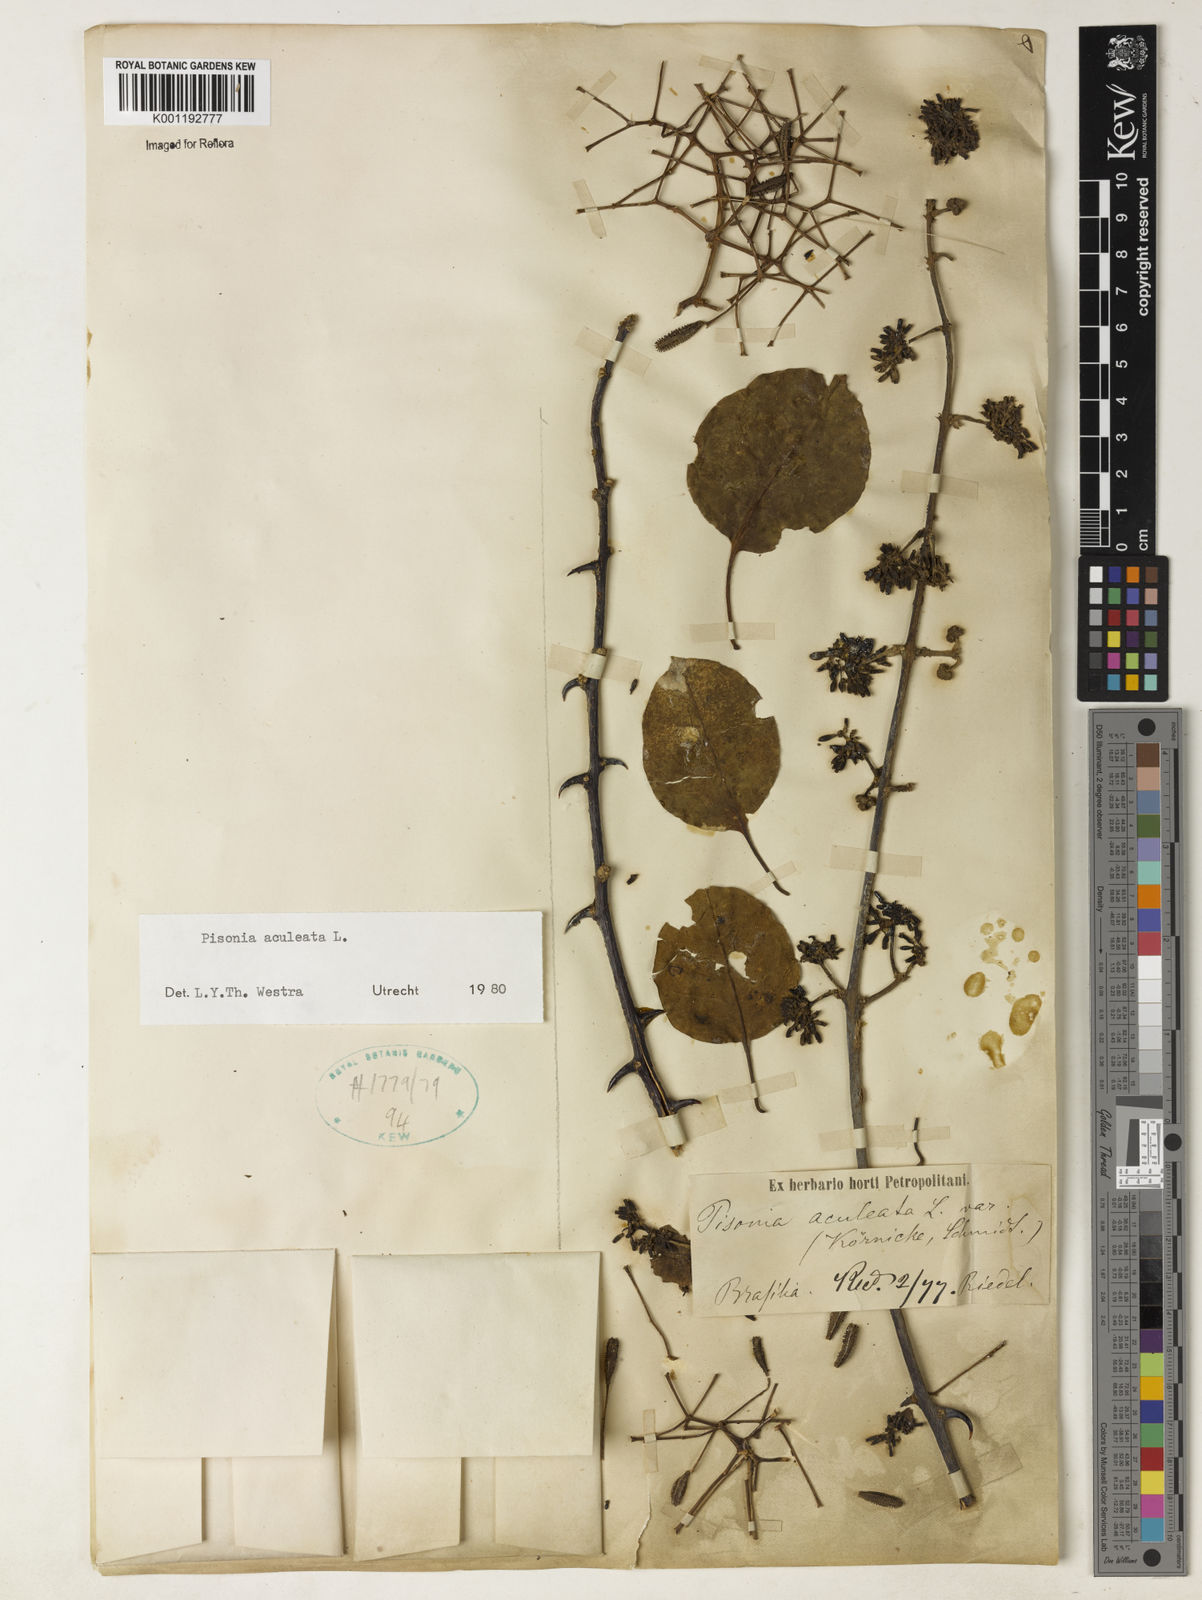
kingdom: Plantae
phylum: Tracheophyta
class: Magnoliopsida
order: Caryophyllales
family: Nyctaginaceae
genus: Pisonia
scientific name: Pisonia aculeata
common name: Cockspur vine
